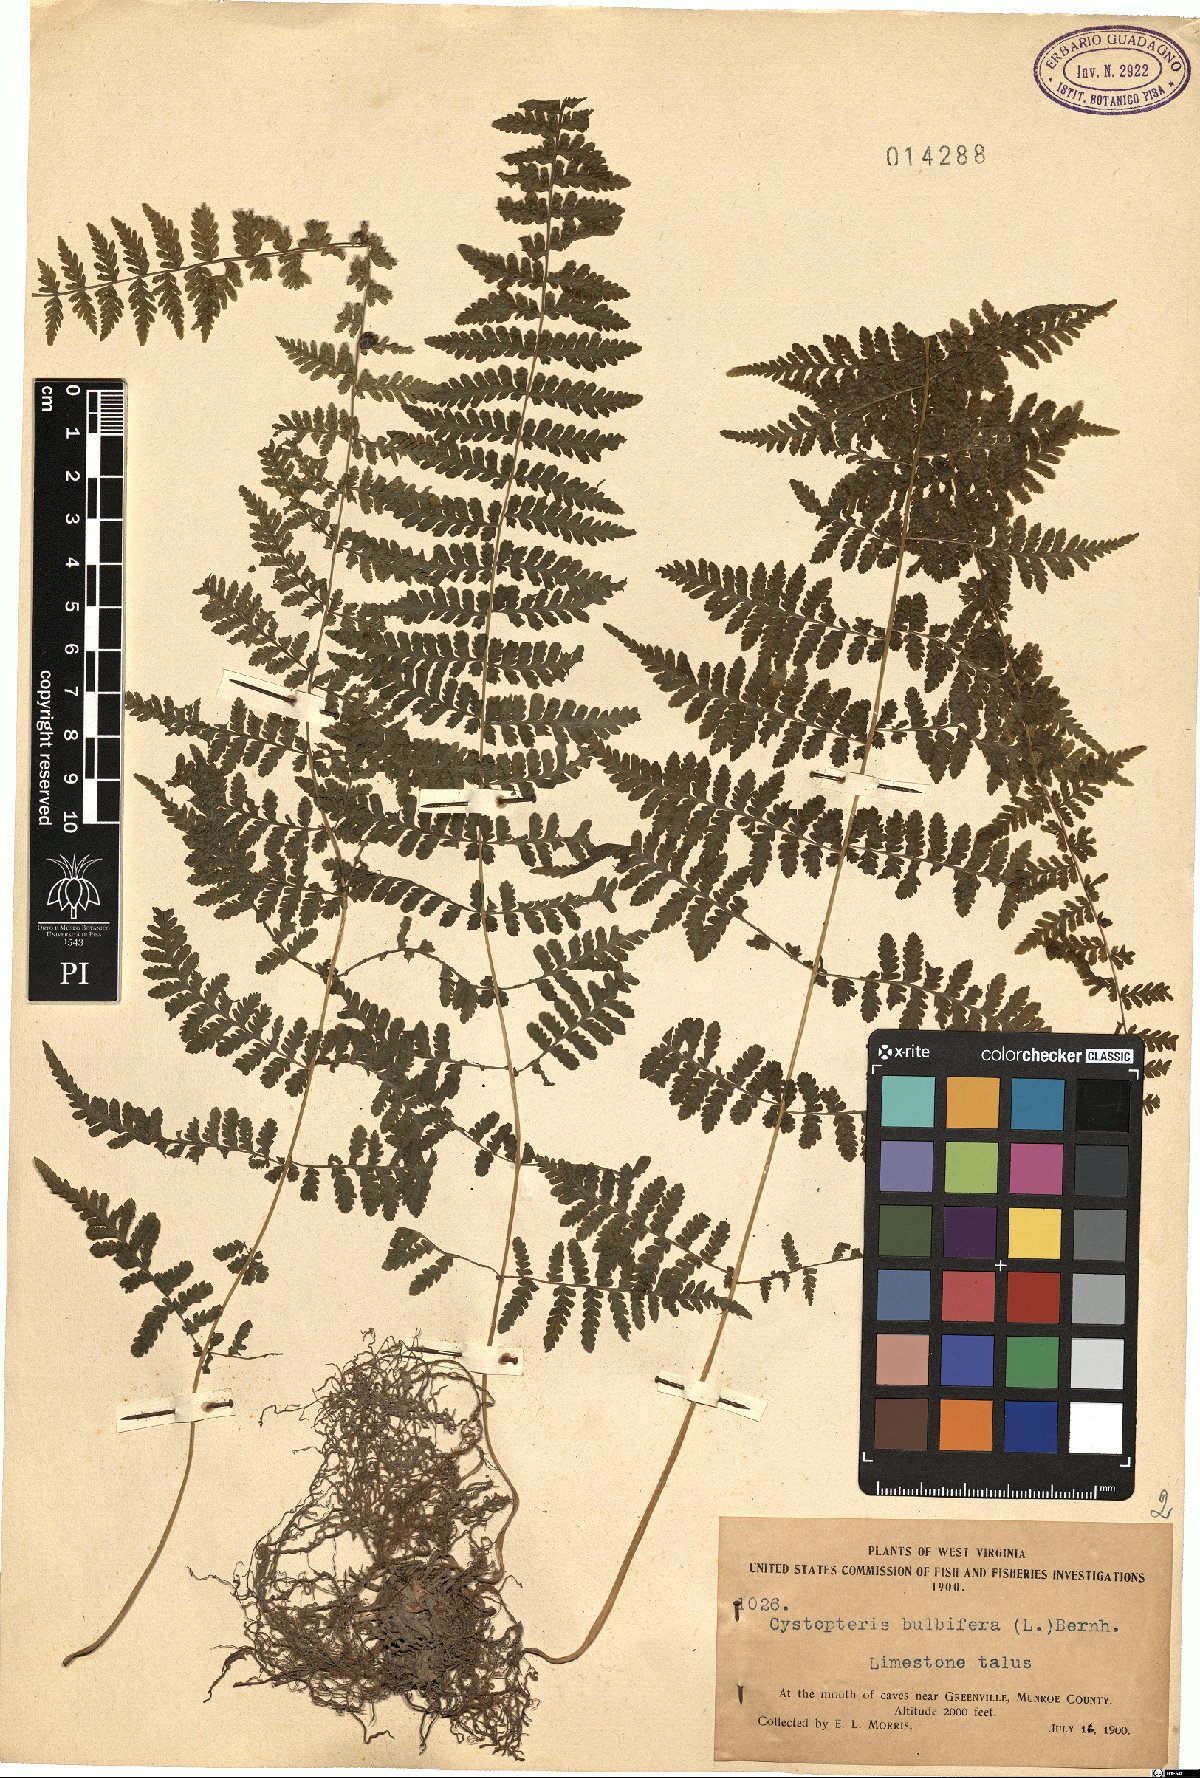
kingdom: Plantae
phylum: Tracheophyta
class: Polypodiopsida
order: Polypodiales
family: Cystopteridaceae
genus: Cystopteris
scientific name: Cystopteris bulbifera
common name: Bulblet bladder fern
